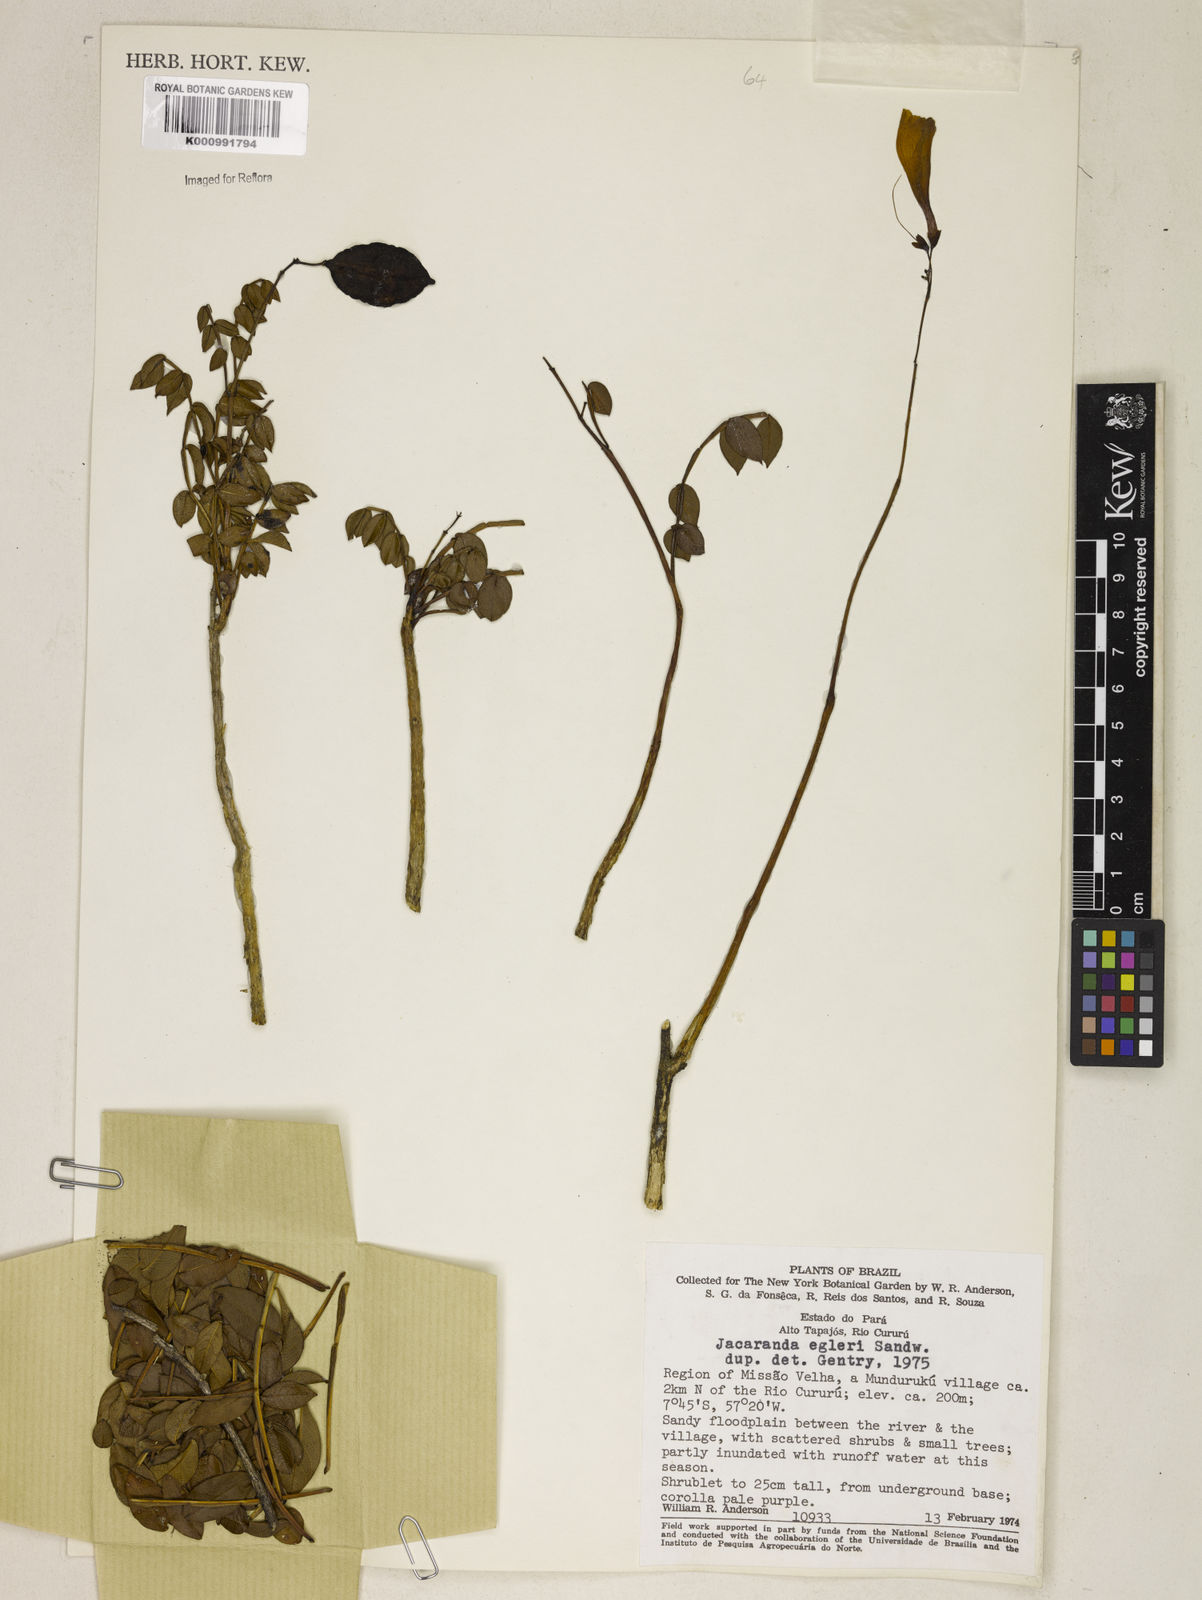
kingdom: Plantae
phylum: Tracheophyta
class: Magnoliopsida
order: Lamiales
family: Bignoniaceae
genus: Jacaranda
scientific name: Jacaranda egleri
